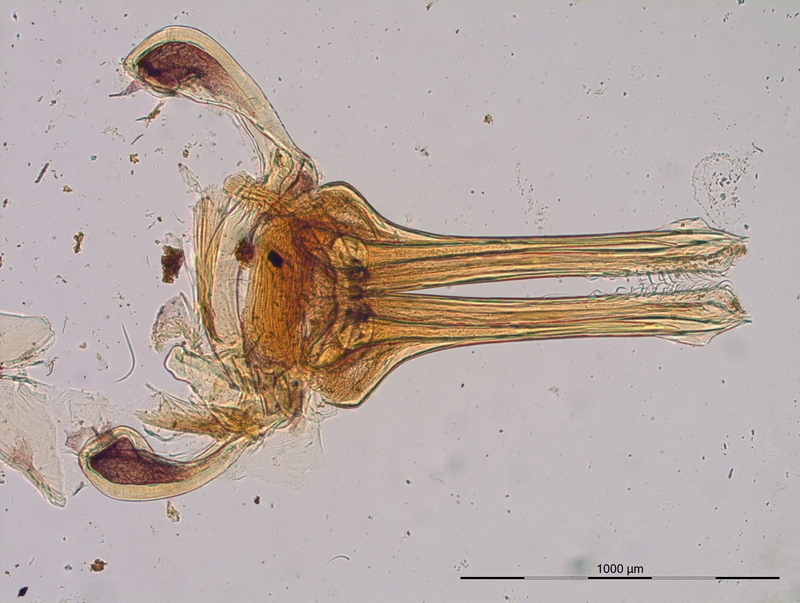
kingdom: Animalia
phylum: Arthropoda
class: Diplopoda
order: Julida
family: Parajulidae
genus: Karteroiulus
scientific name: Karteroiulus niger
